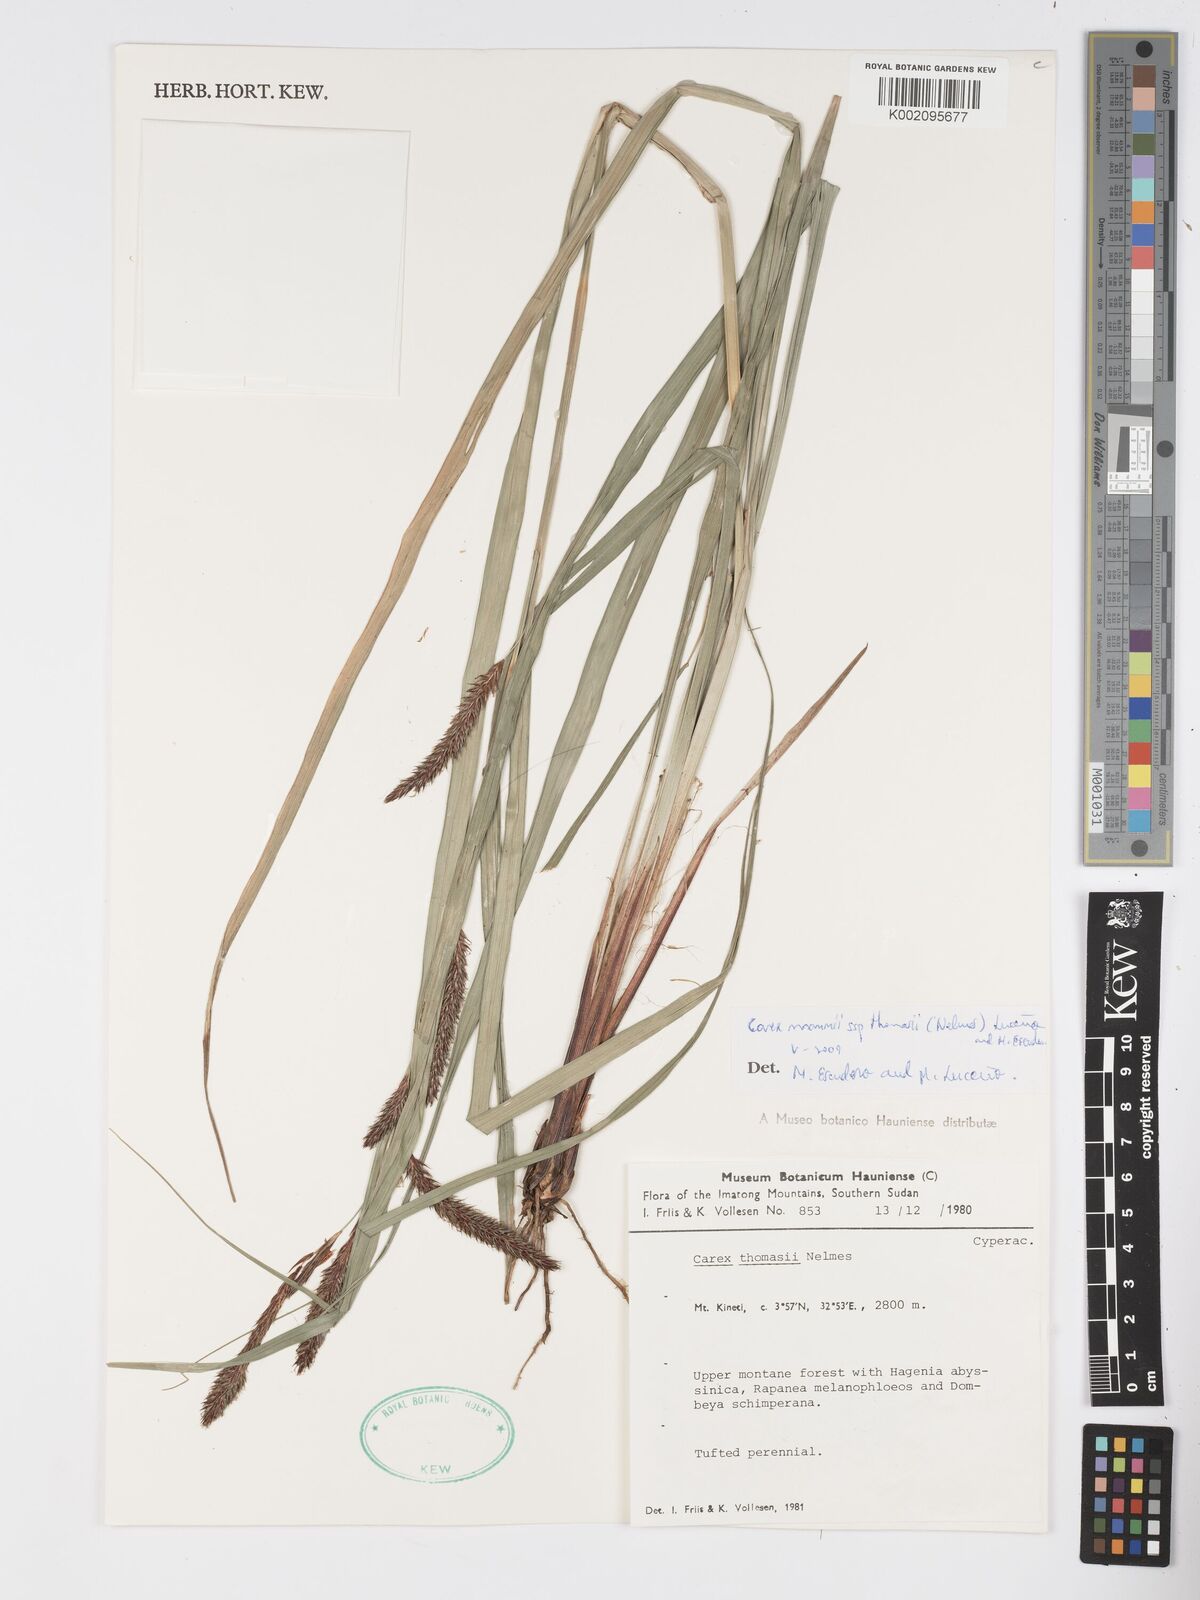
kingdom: Plantae
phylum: Tracheophyta
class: Liliopsida
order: Poales
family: Cyperaceae
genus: Carex
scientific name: Carex mannii
